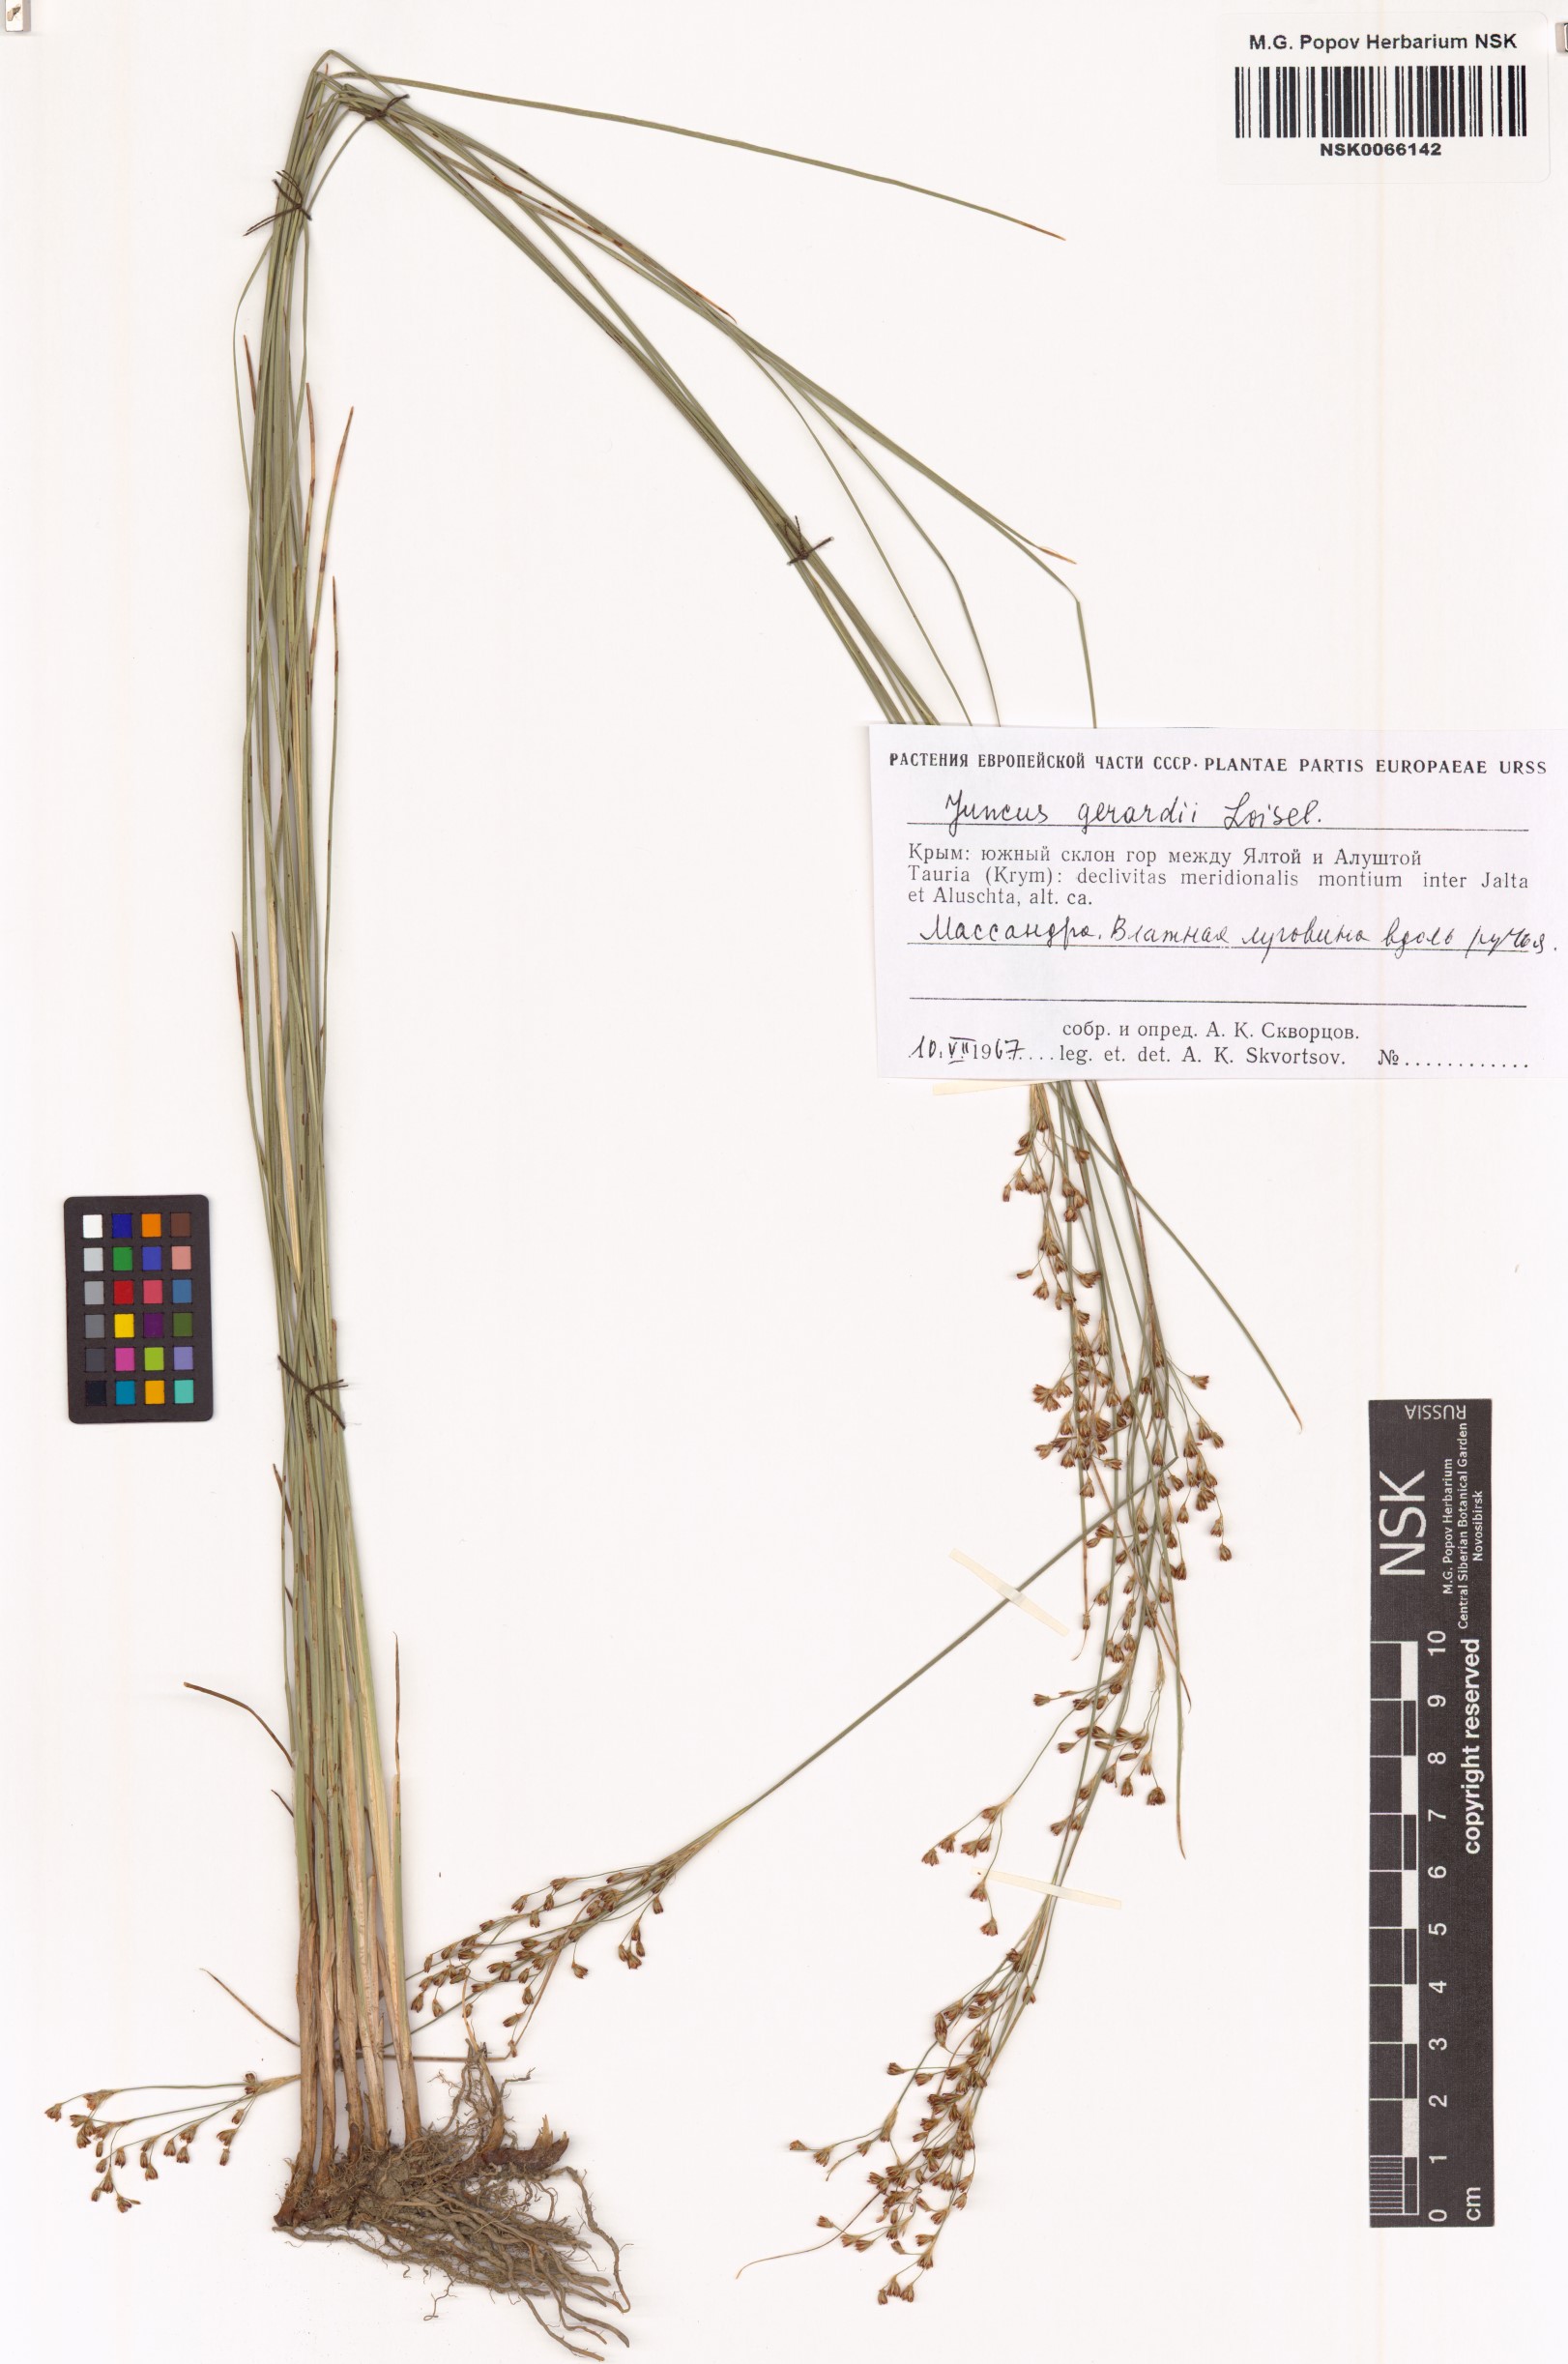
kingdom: Plantae
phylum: Tracheophyta
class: Liliopsida
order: Poales
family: Juncaceae
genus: Juncus
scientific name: Juncus gerardi
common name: Saltmarsh rush
